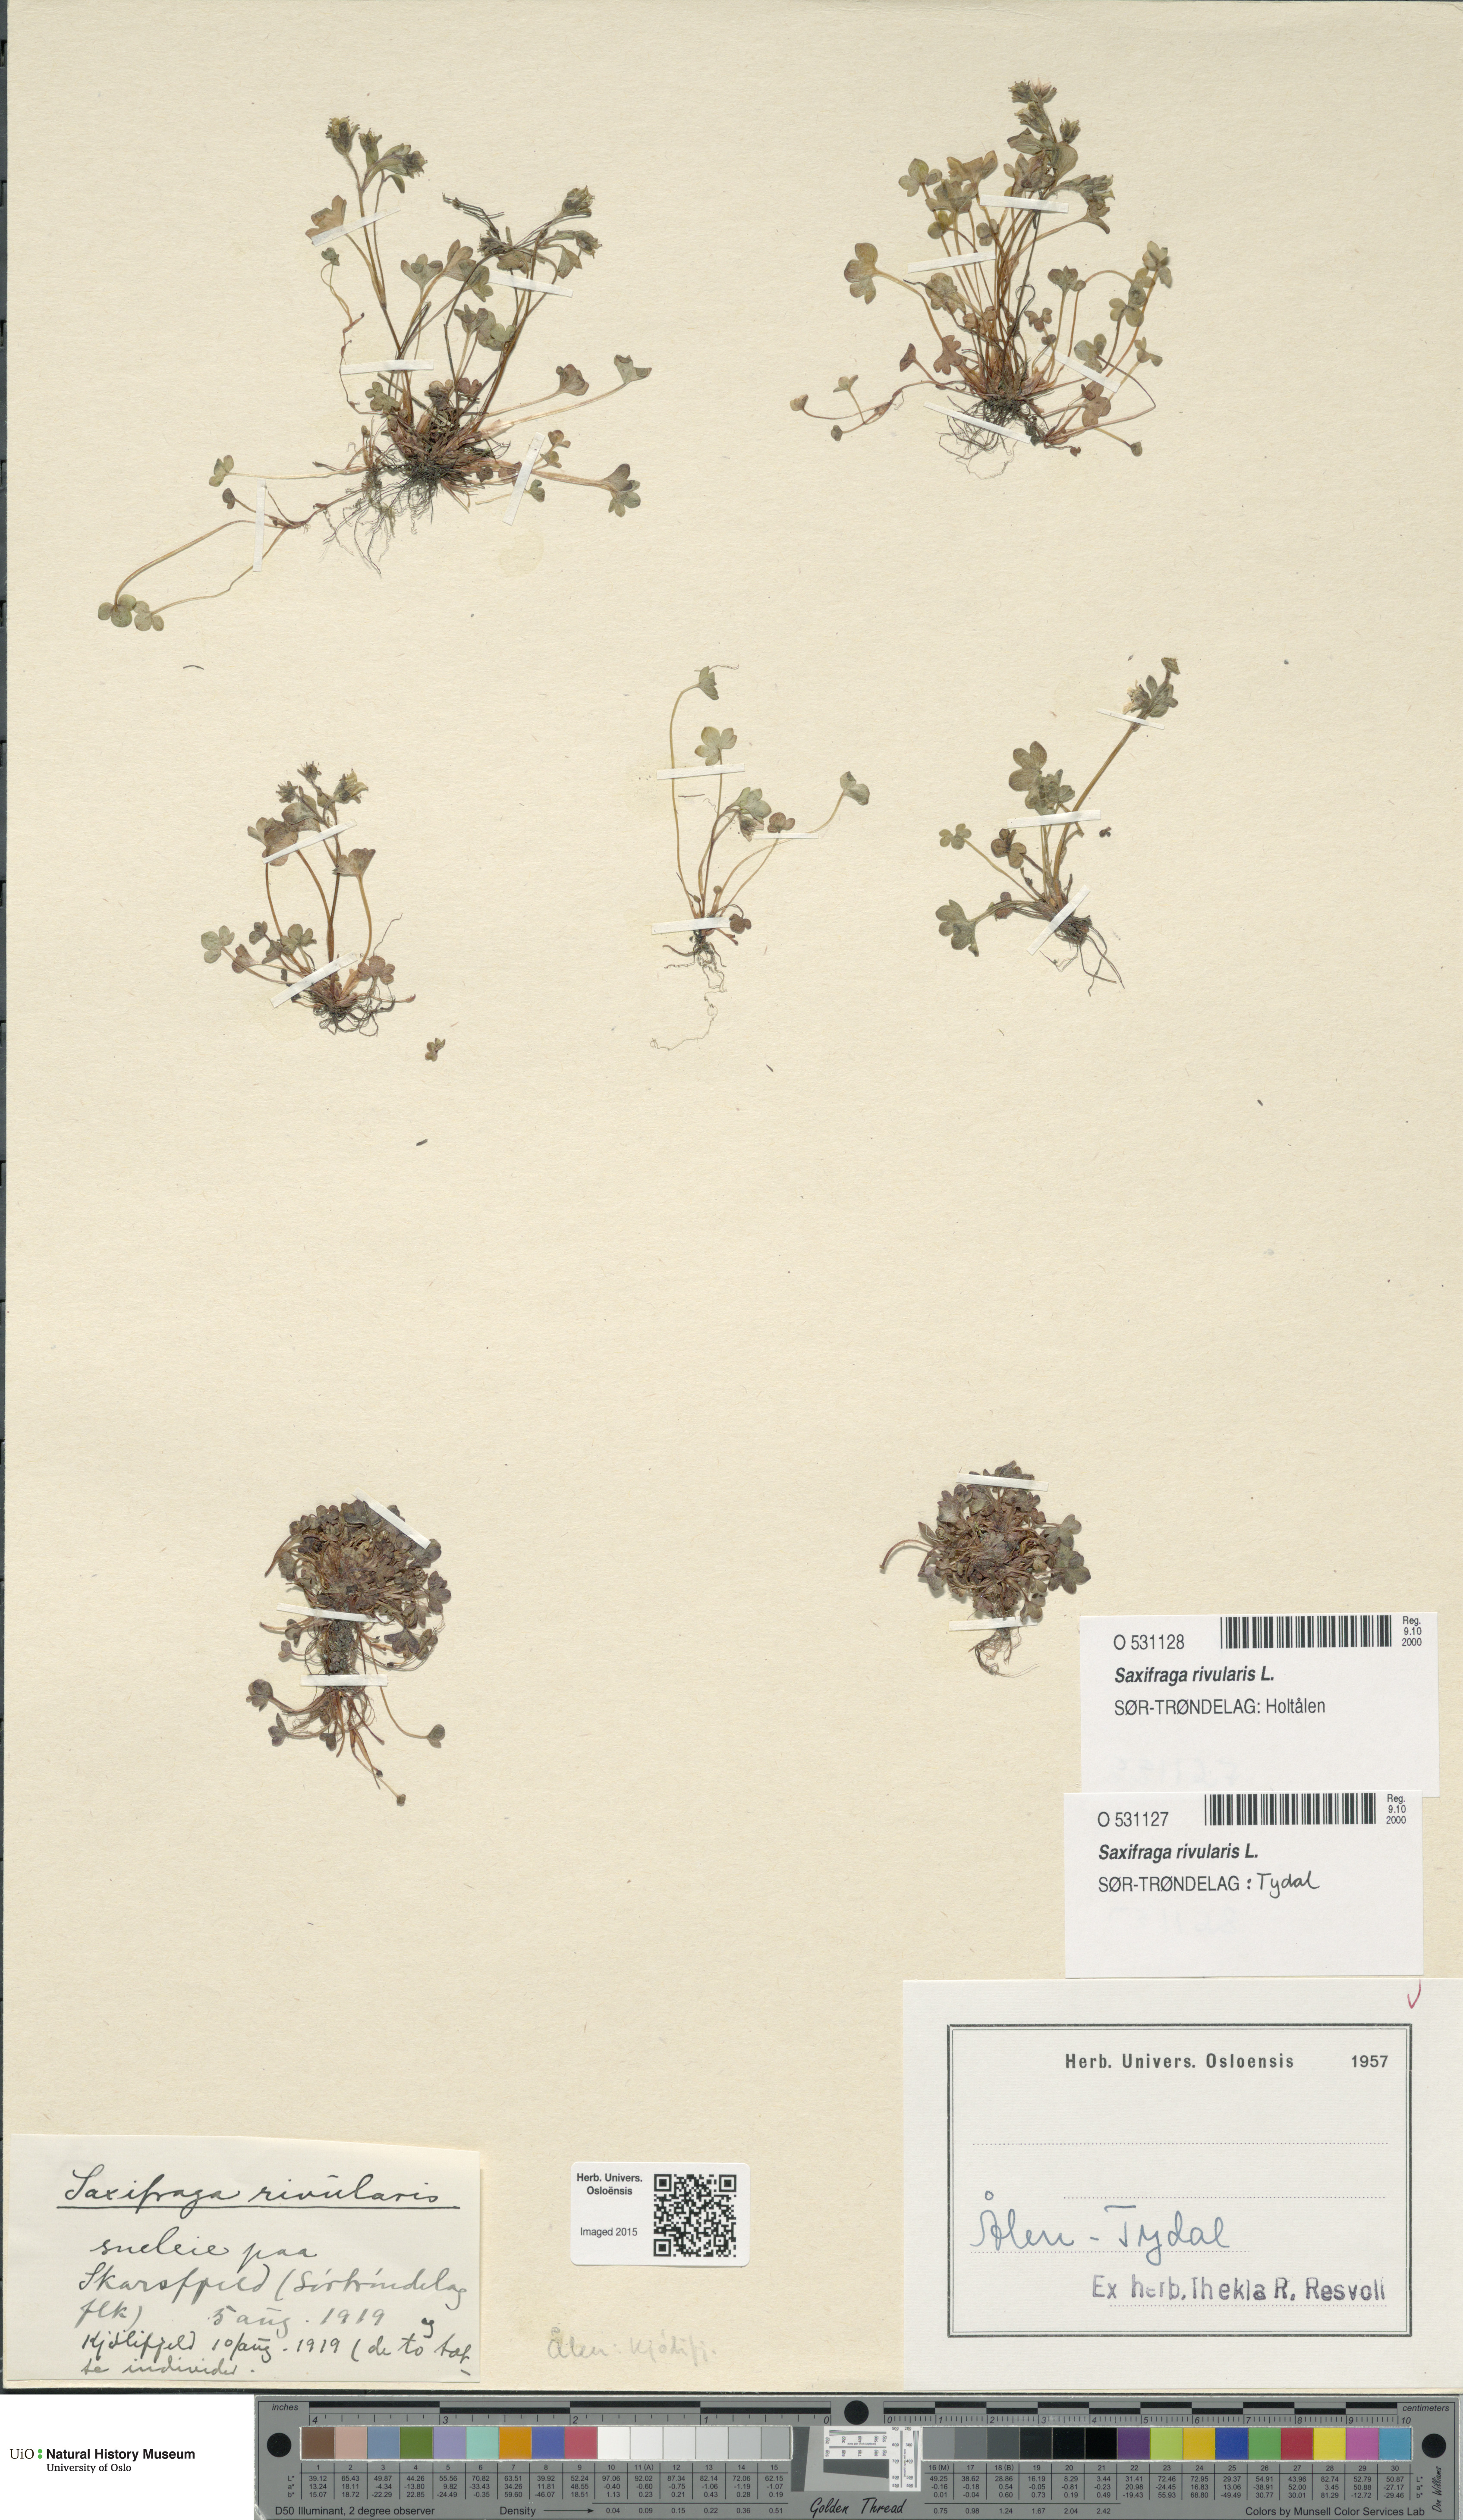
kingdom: Plantae
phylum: Tracheophyta
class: Magnoliopsida
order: Saxifragales
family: Saxifragaceae
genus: Saxifraga
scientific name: Saxifraga rivularis
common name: Highland saxifrage
